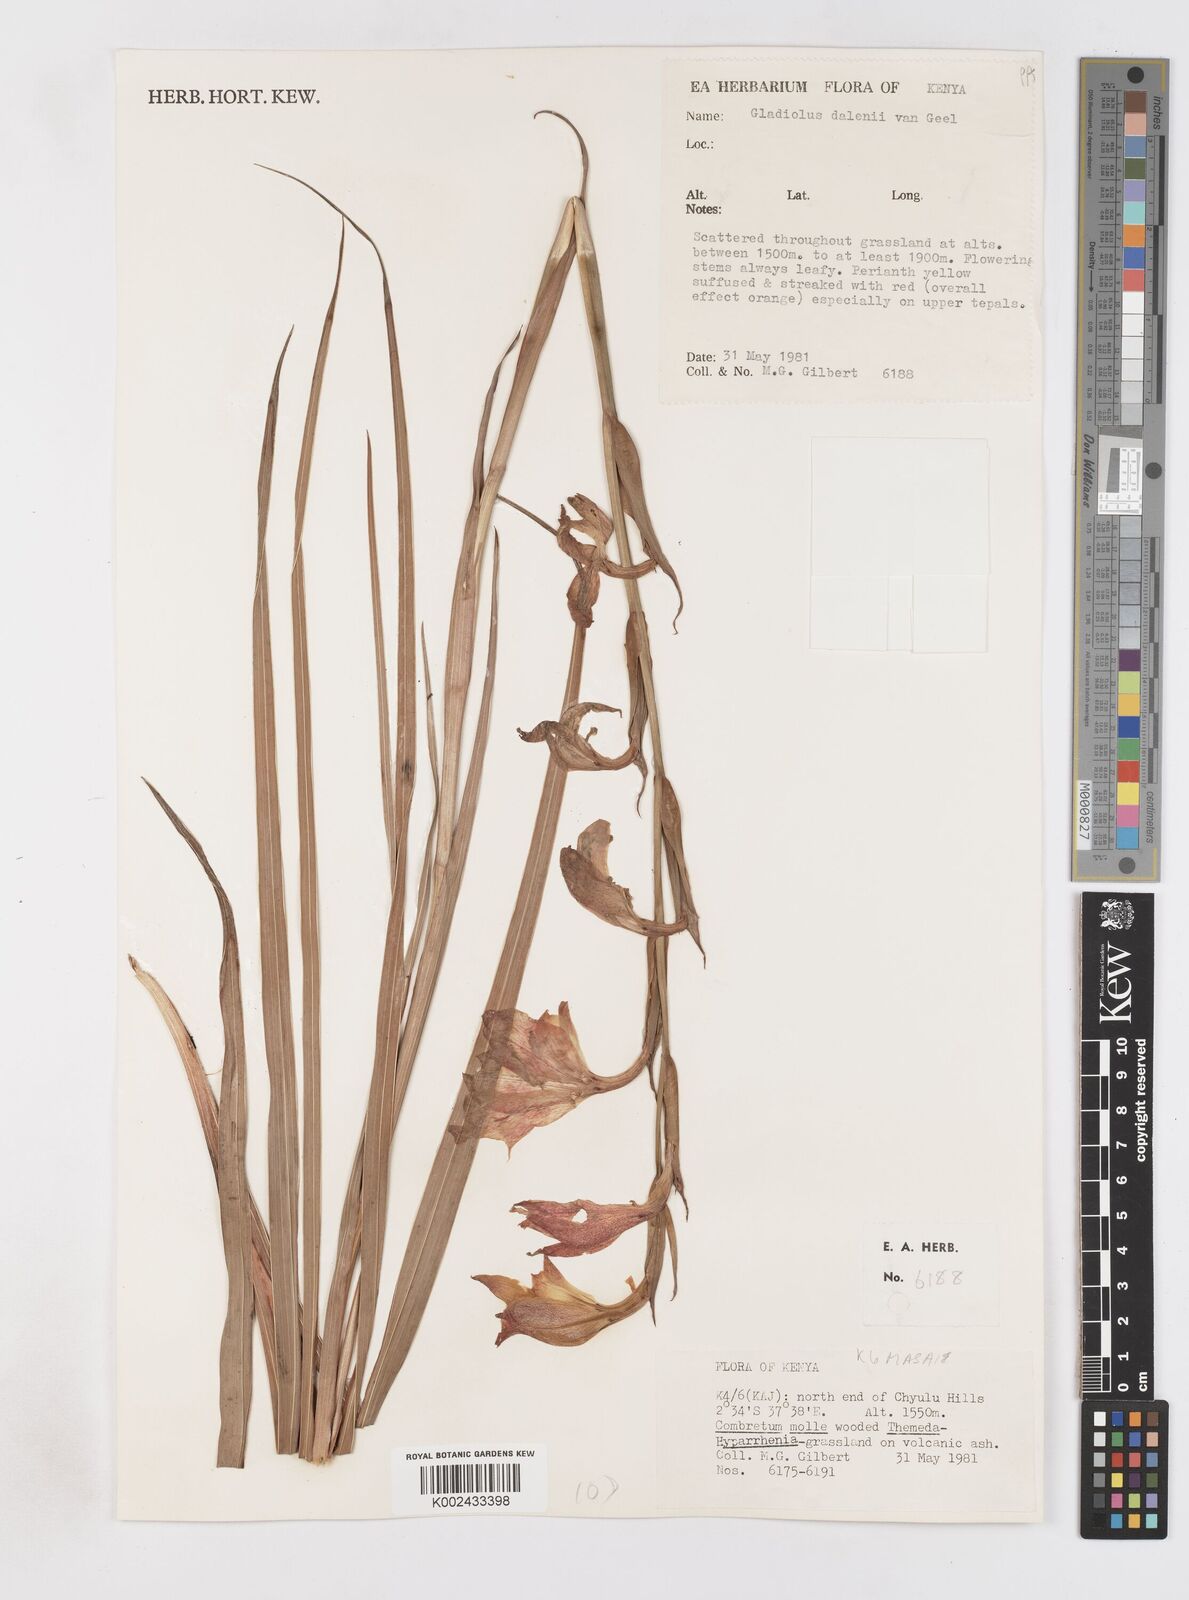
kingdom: Plantae
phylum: Tracheophyta
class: Liliopsida
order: Asparagales
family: Iridaceae
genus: Gladiolus
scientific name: Gladiolus dalenii
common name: Cornflag
